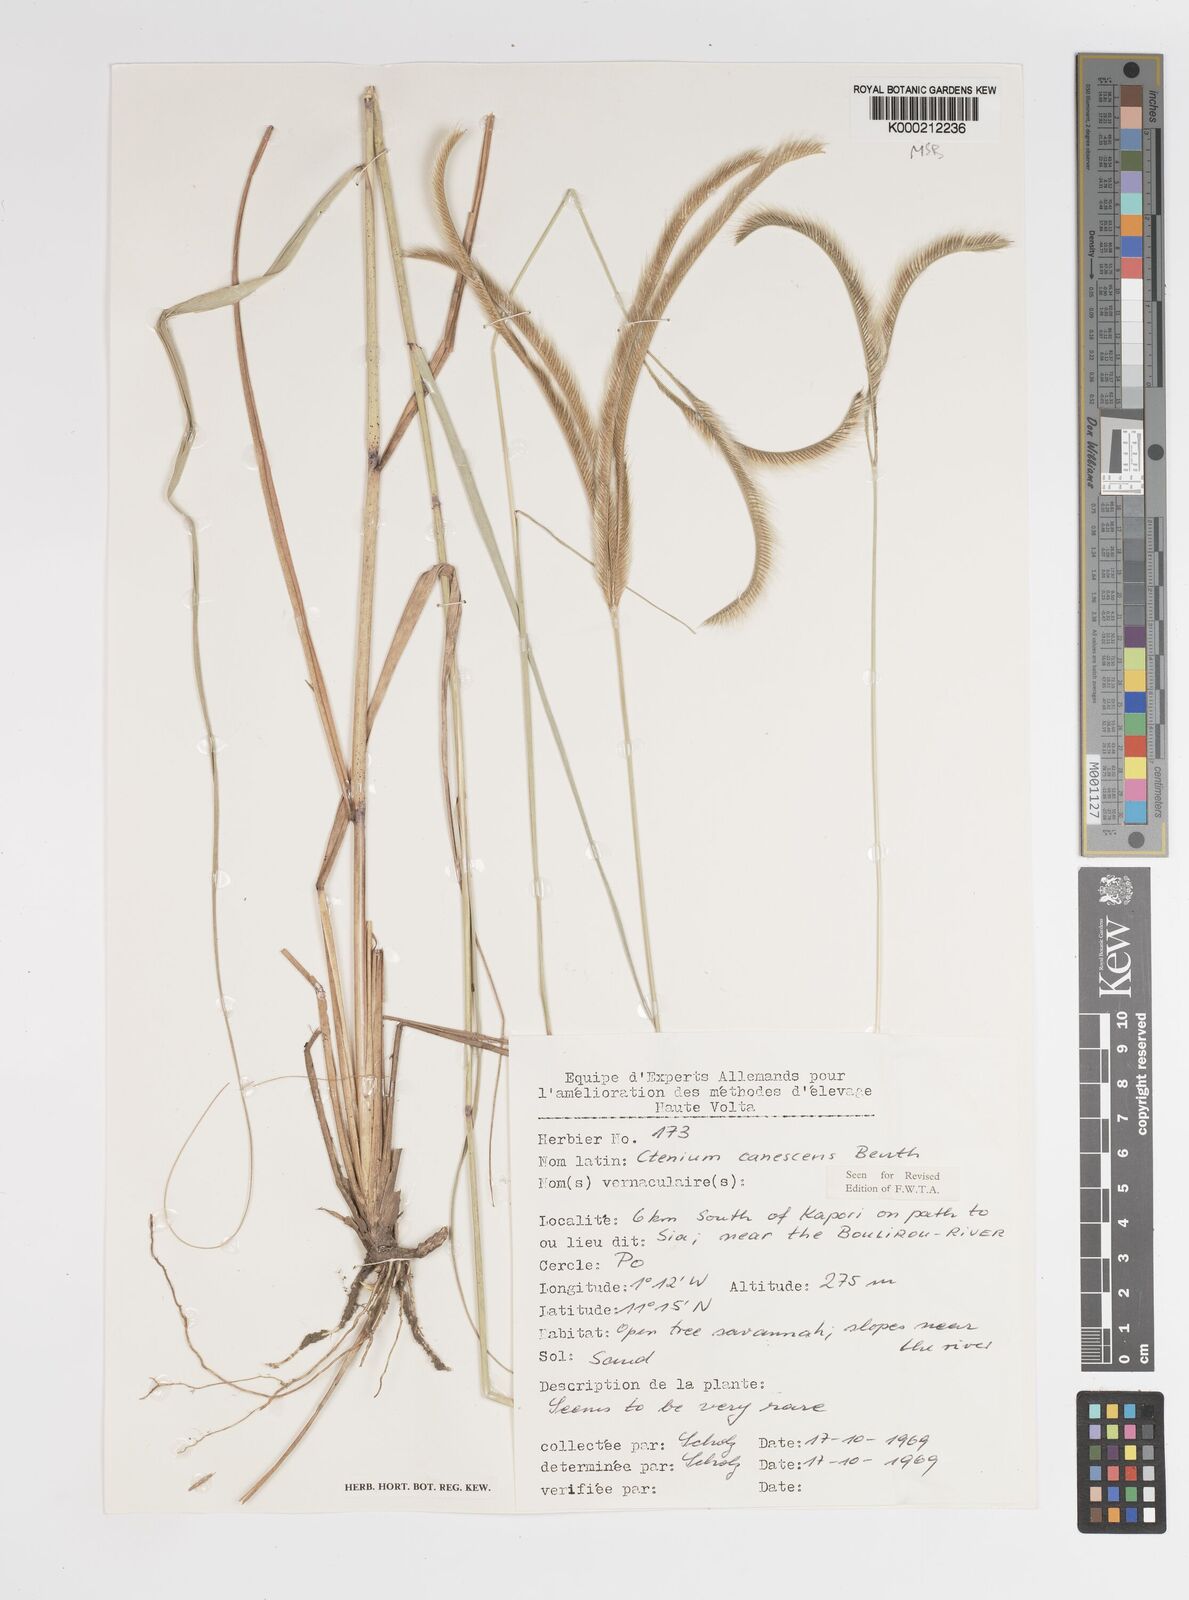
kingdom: Plantae
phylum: Tracheophyta
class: Liliopsida
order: Poales
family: Poaceae
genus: Ctenium
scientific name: Ctenium canescens
